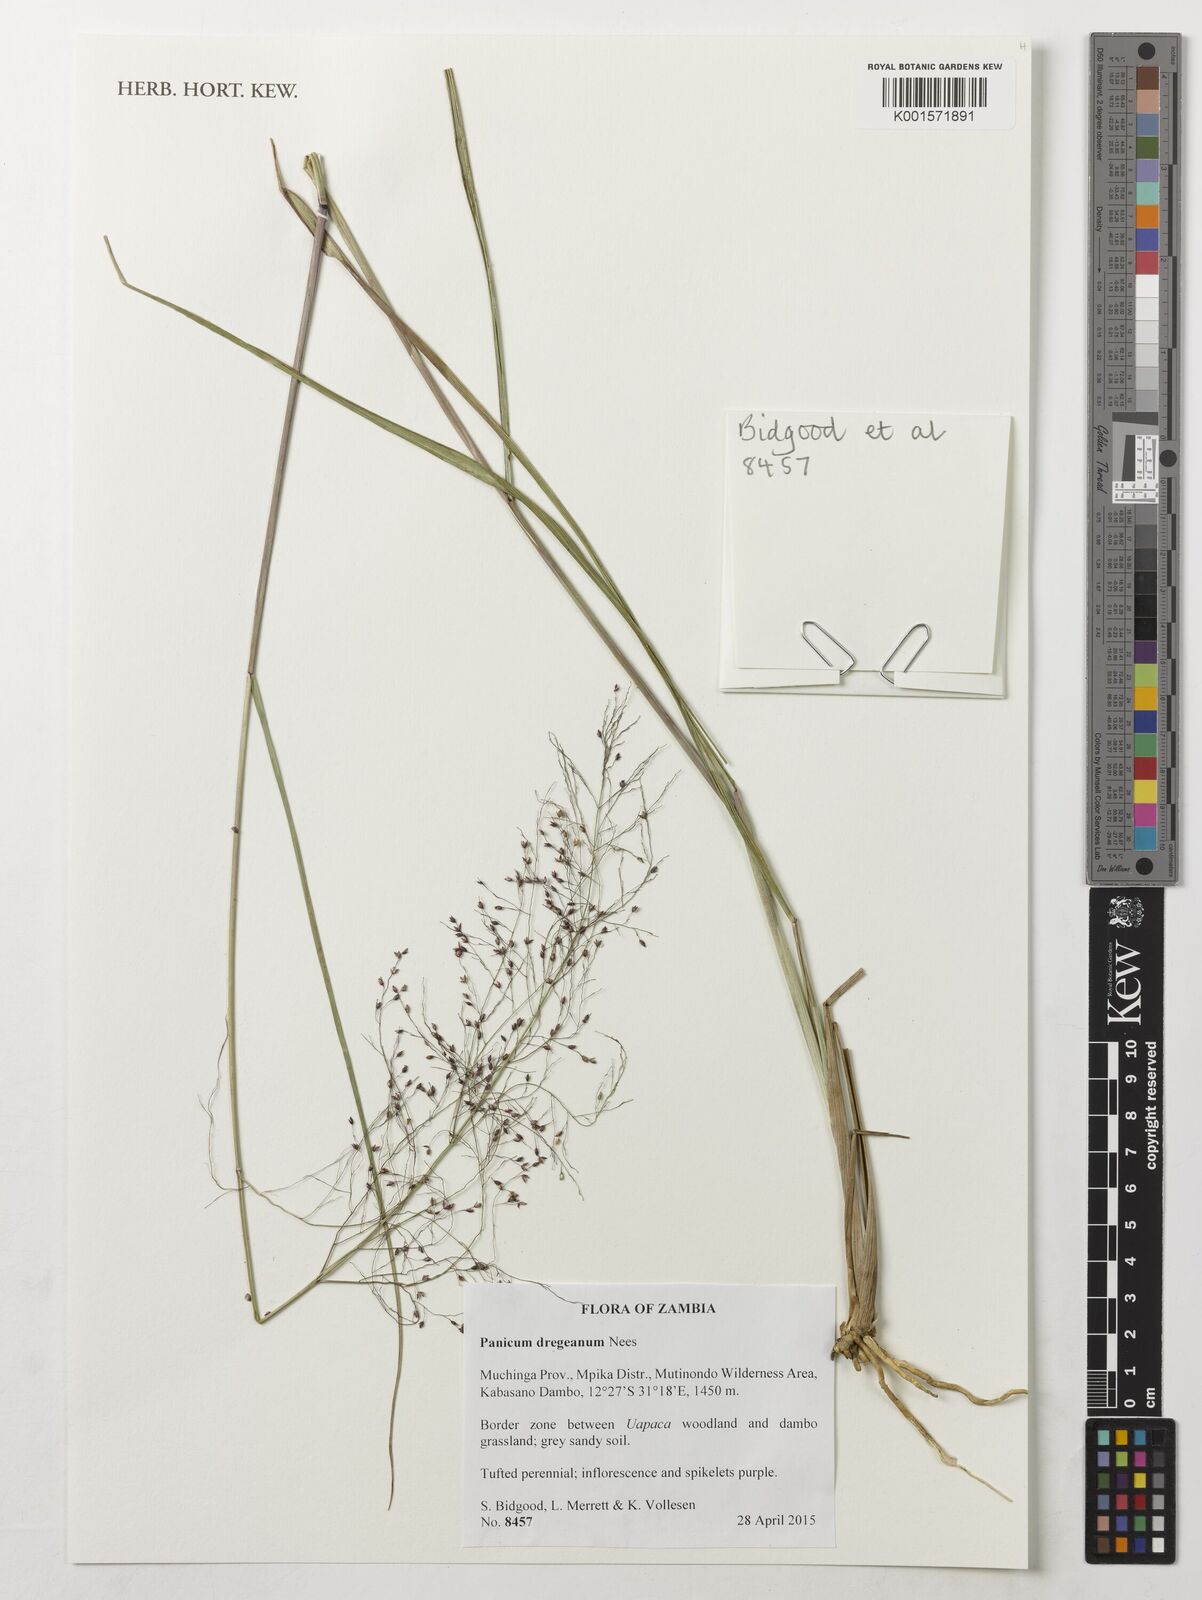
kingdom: Plantae
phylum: Tracheophyta
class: Liliopsida
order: Poales
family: Poaceae
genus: Panicum
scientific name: Panicum dregeanum
